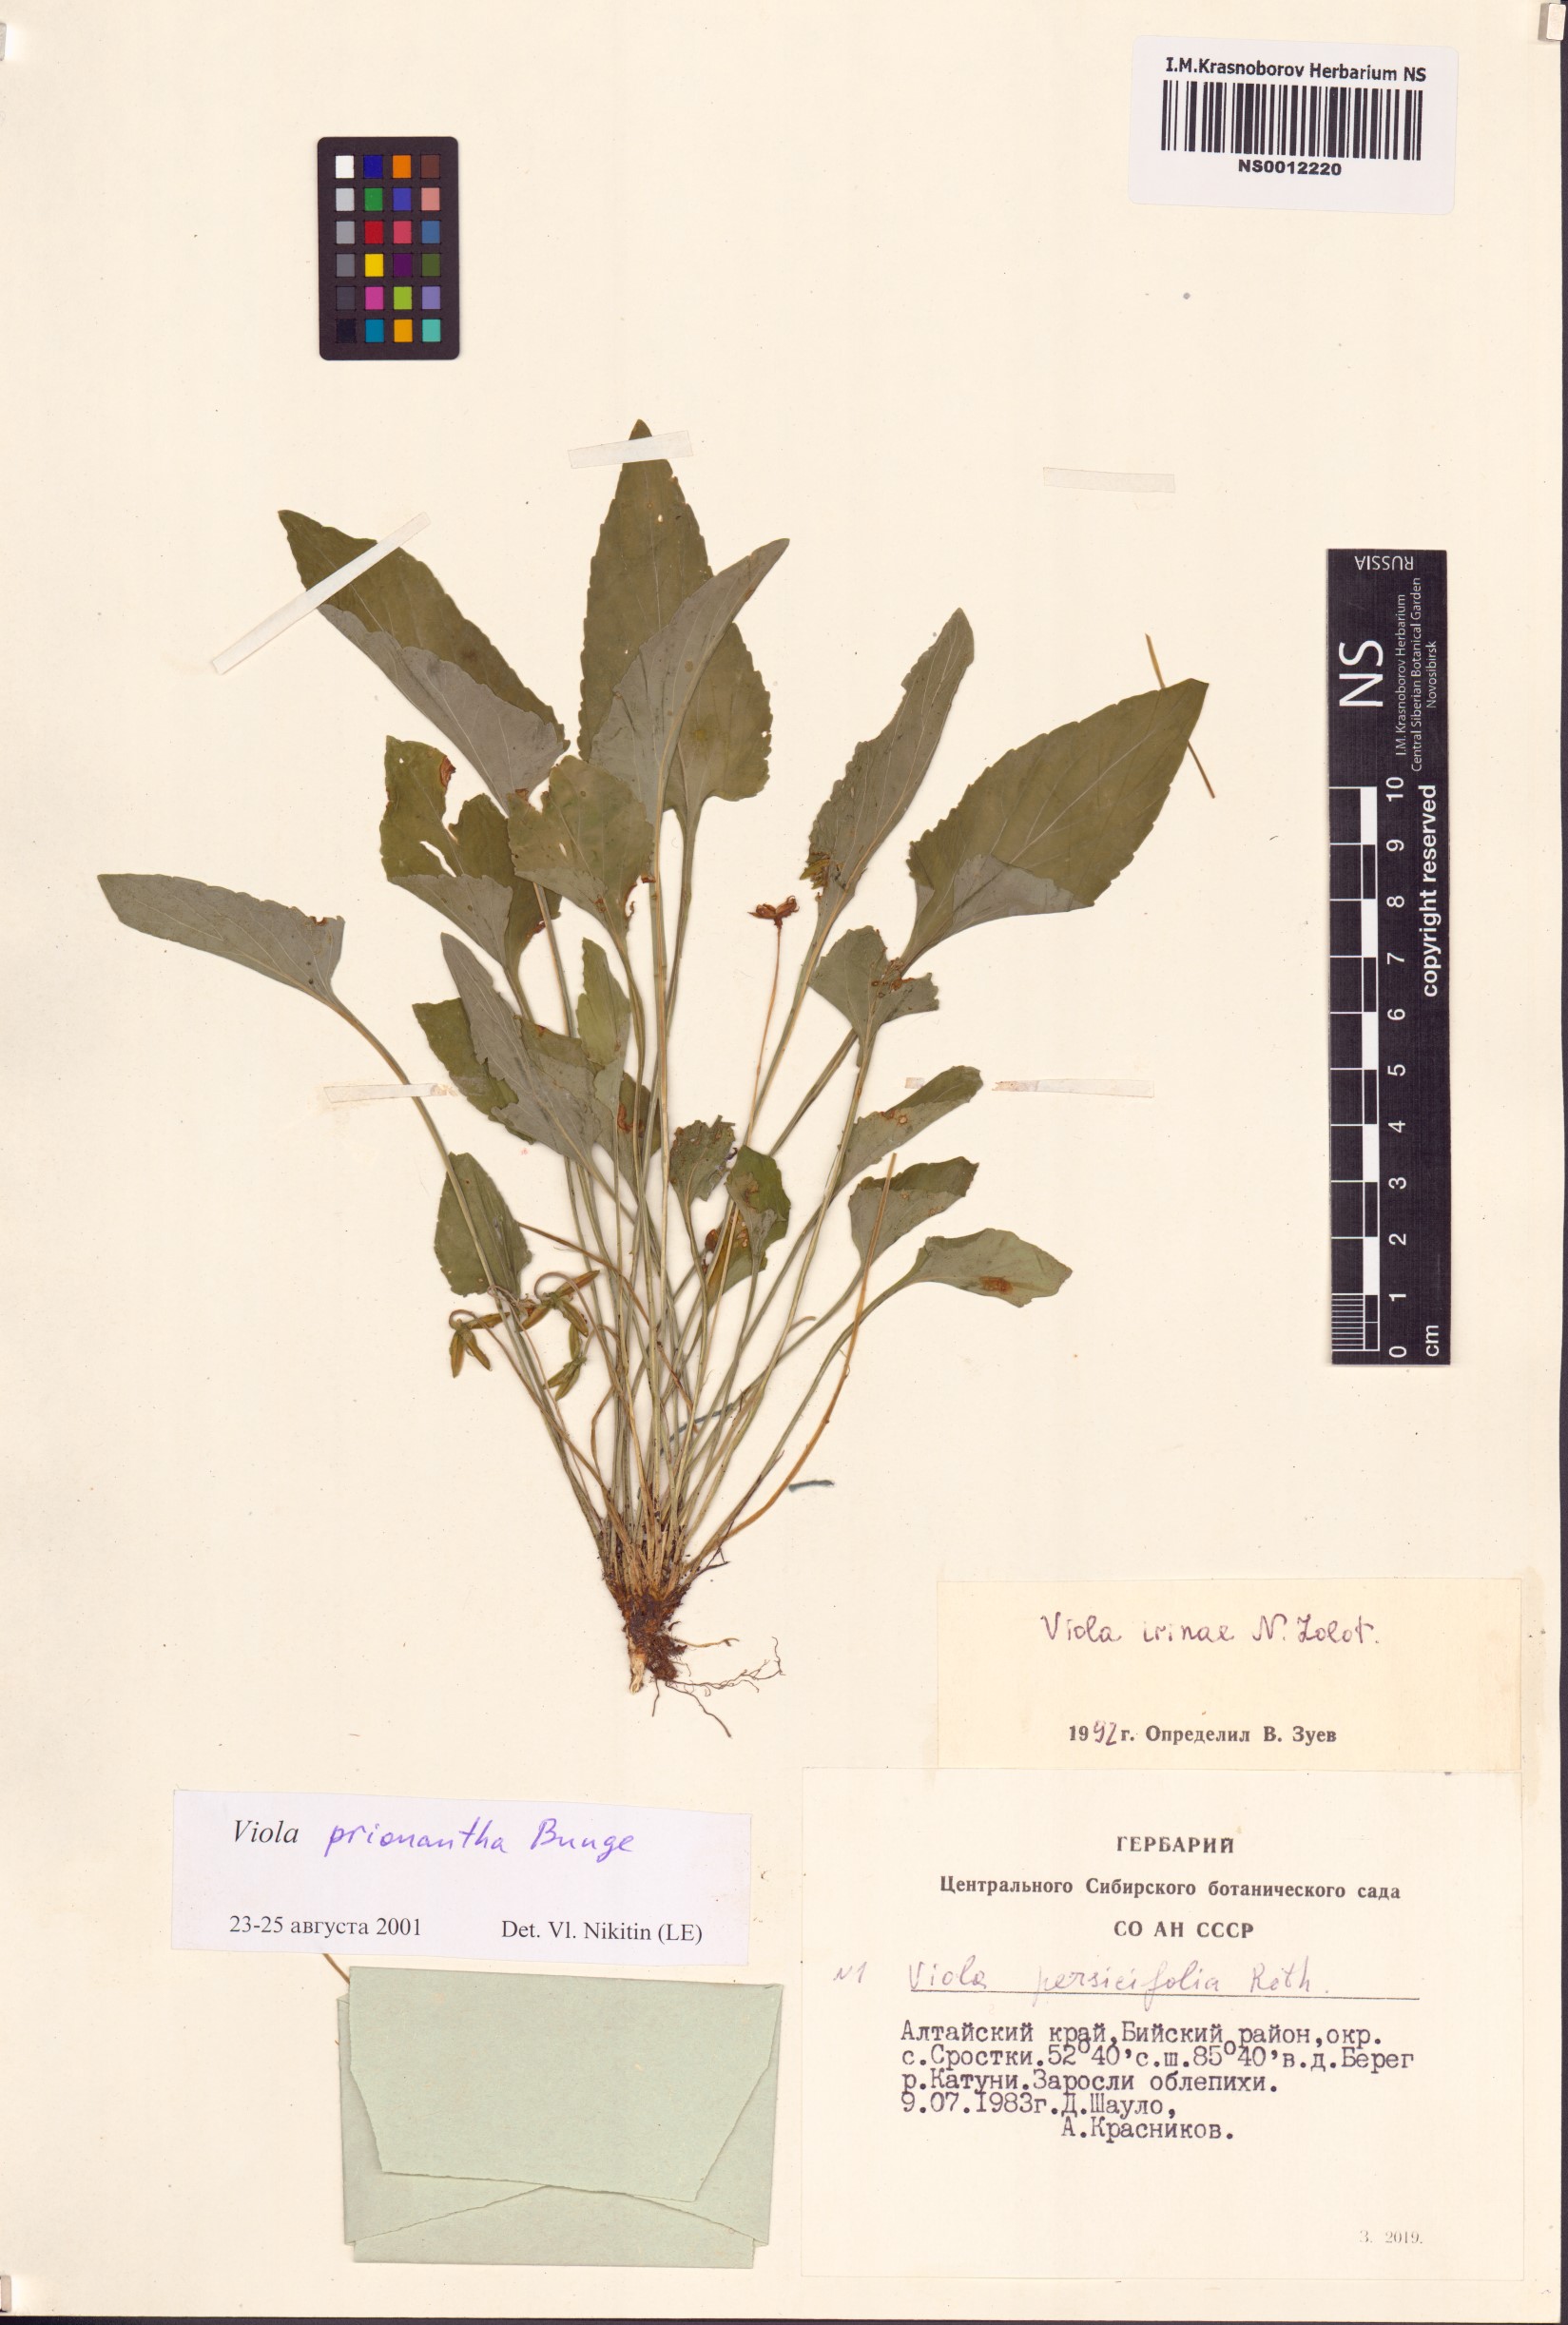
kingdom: Plantae
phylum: Tracheophyta
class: Magnoliopsida
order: Malpighiales
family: Violaceae
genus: Viola
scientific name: Viola prionantha
